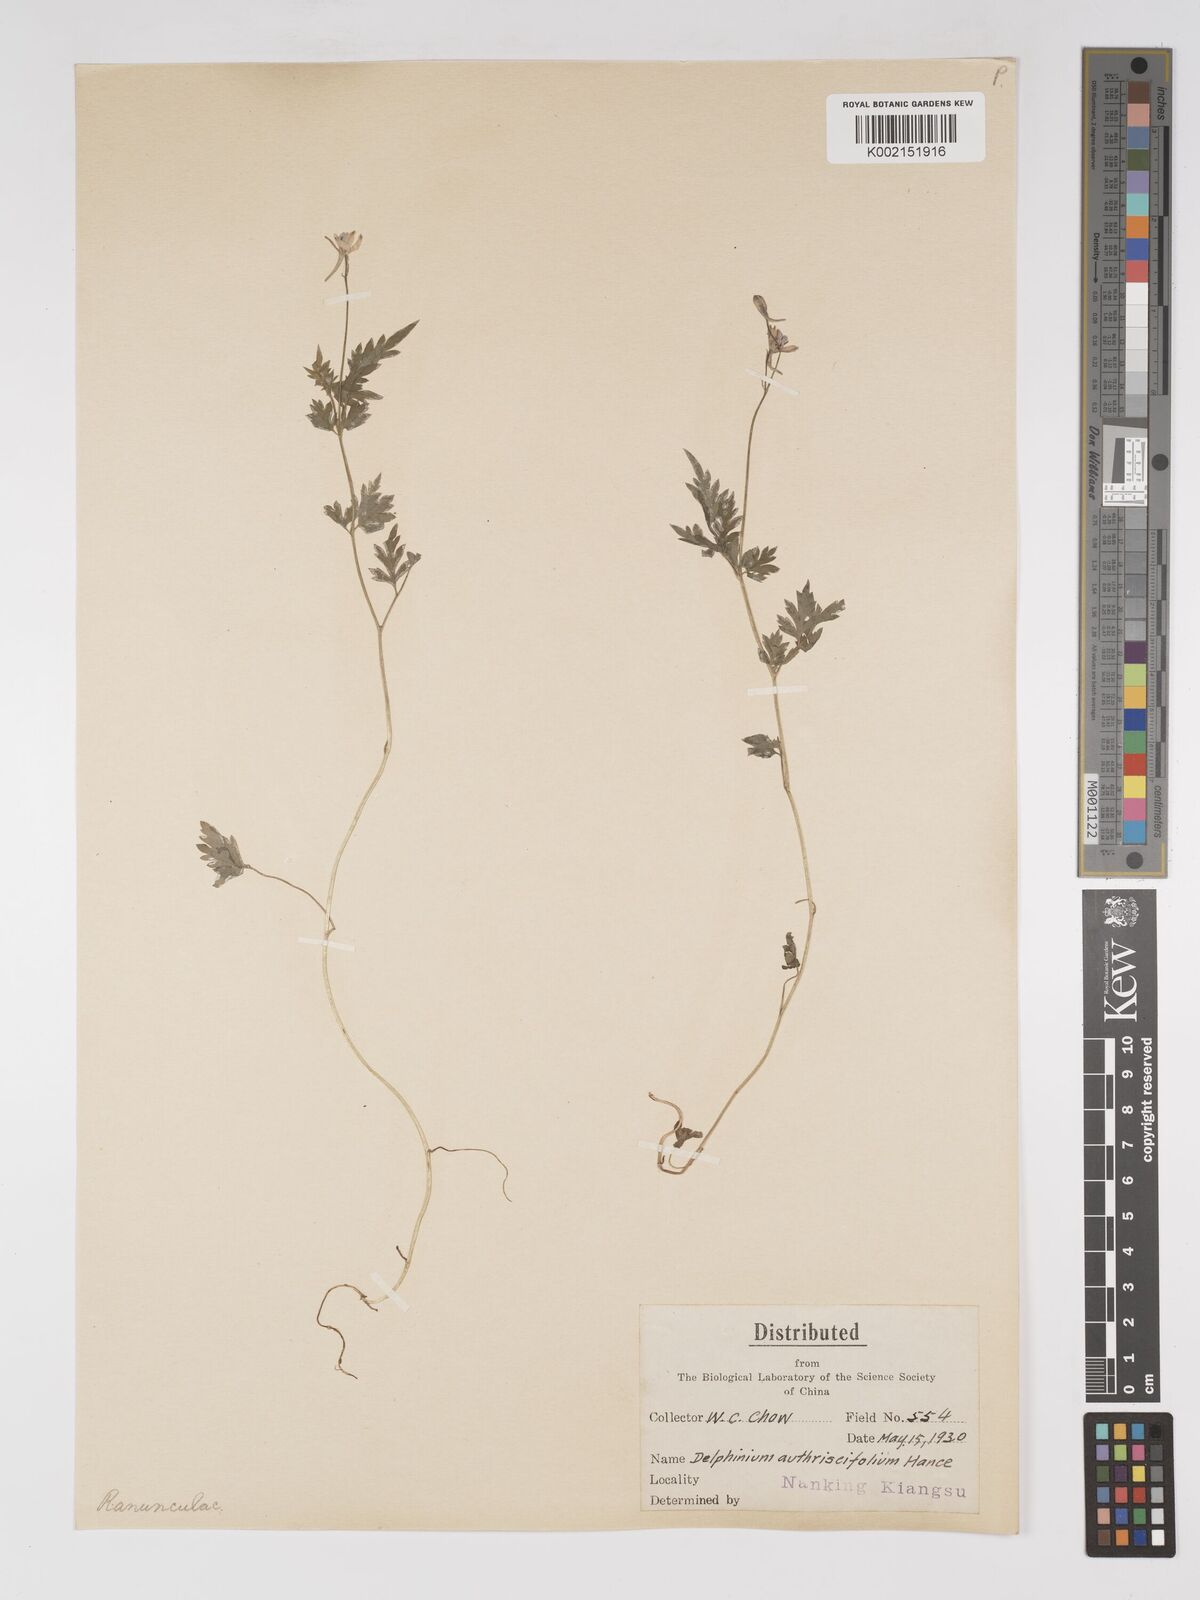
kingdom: Plantae
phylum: Tracheophyta
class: Magnoliopsida
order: Ranunculales
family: Ranunculaceae
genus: Delphinium
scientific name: Delphinium anthriscifolium
